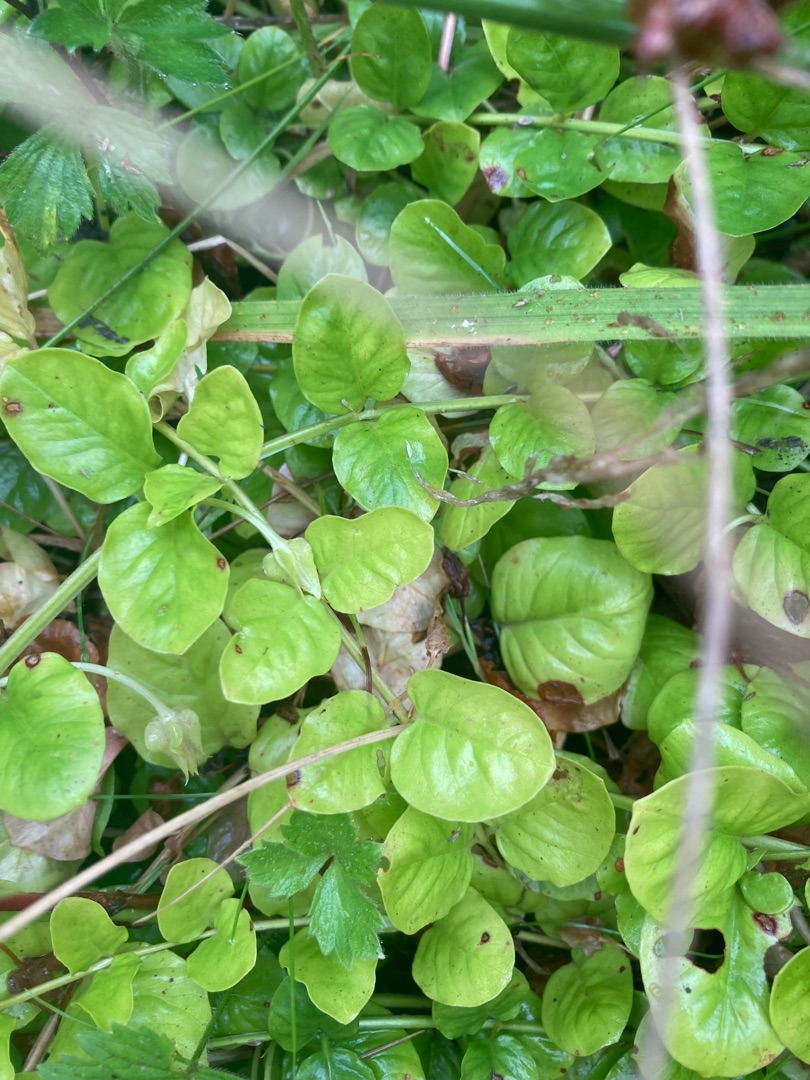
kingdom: Plantae
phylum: Tracheophyta
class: Magnoliopsida
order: Ericales
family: Primulaceae
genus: Lysimachia
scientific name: Lysimachia nummularia
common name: Pengebladet fredløs
